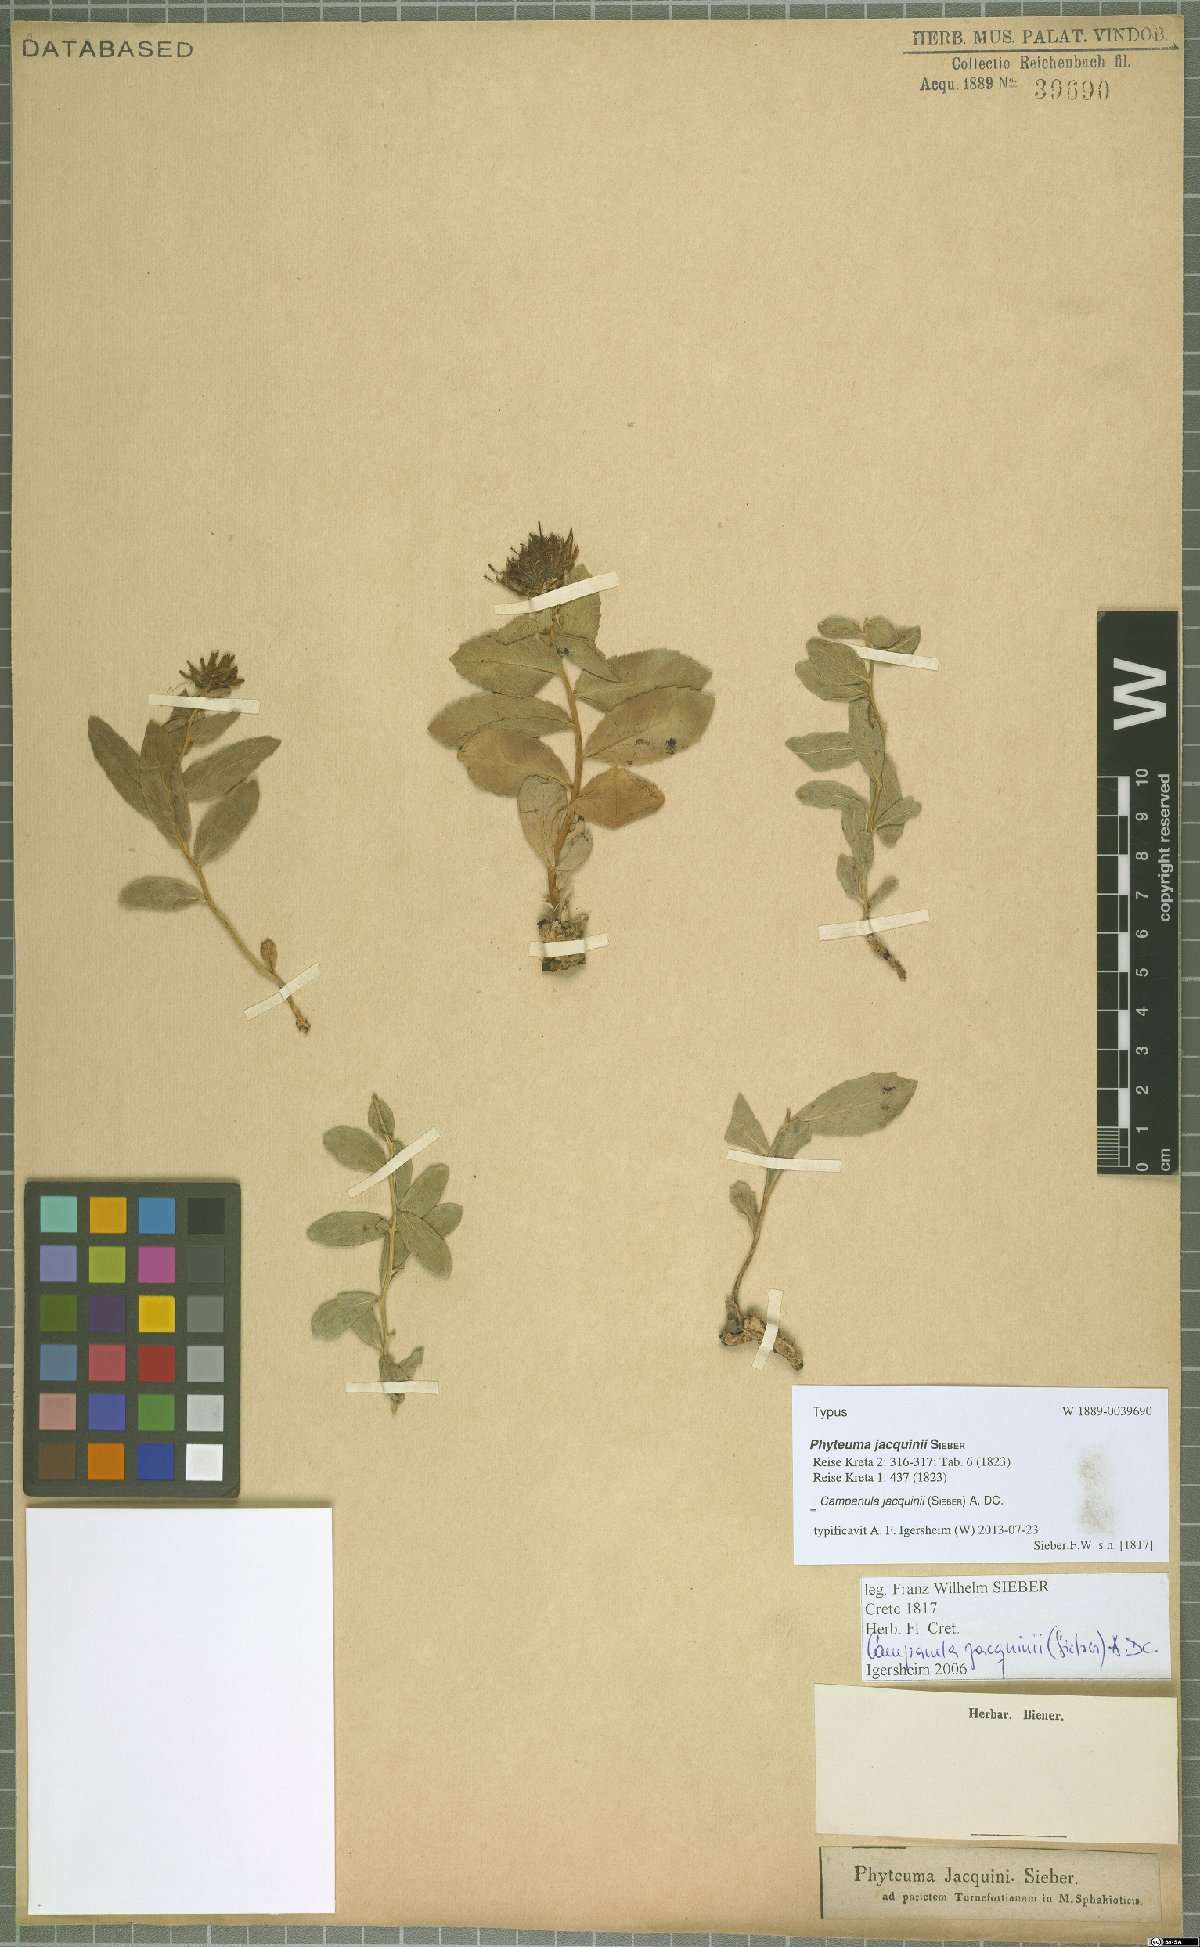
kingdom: Plantae
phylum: Tracheophyta
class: Magnoliopsida
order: Asterales
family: Campanulaceae
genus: Campanula
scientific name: Campanula jacquinii
